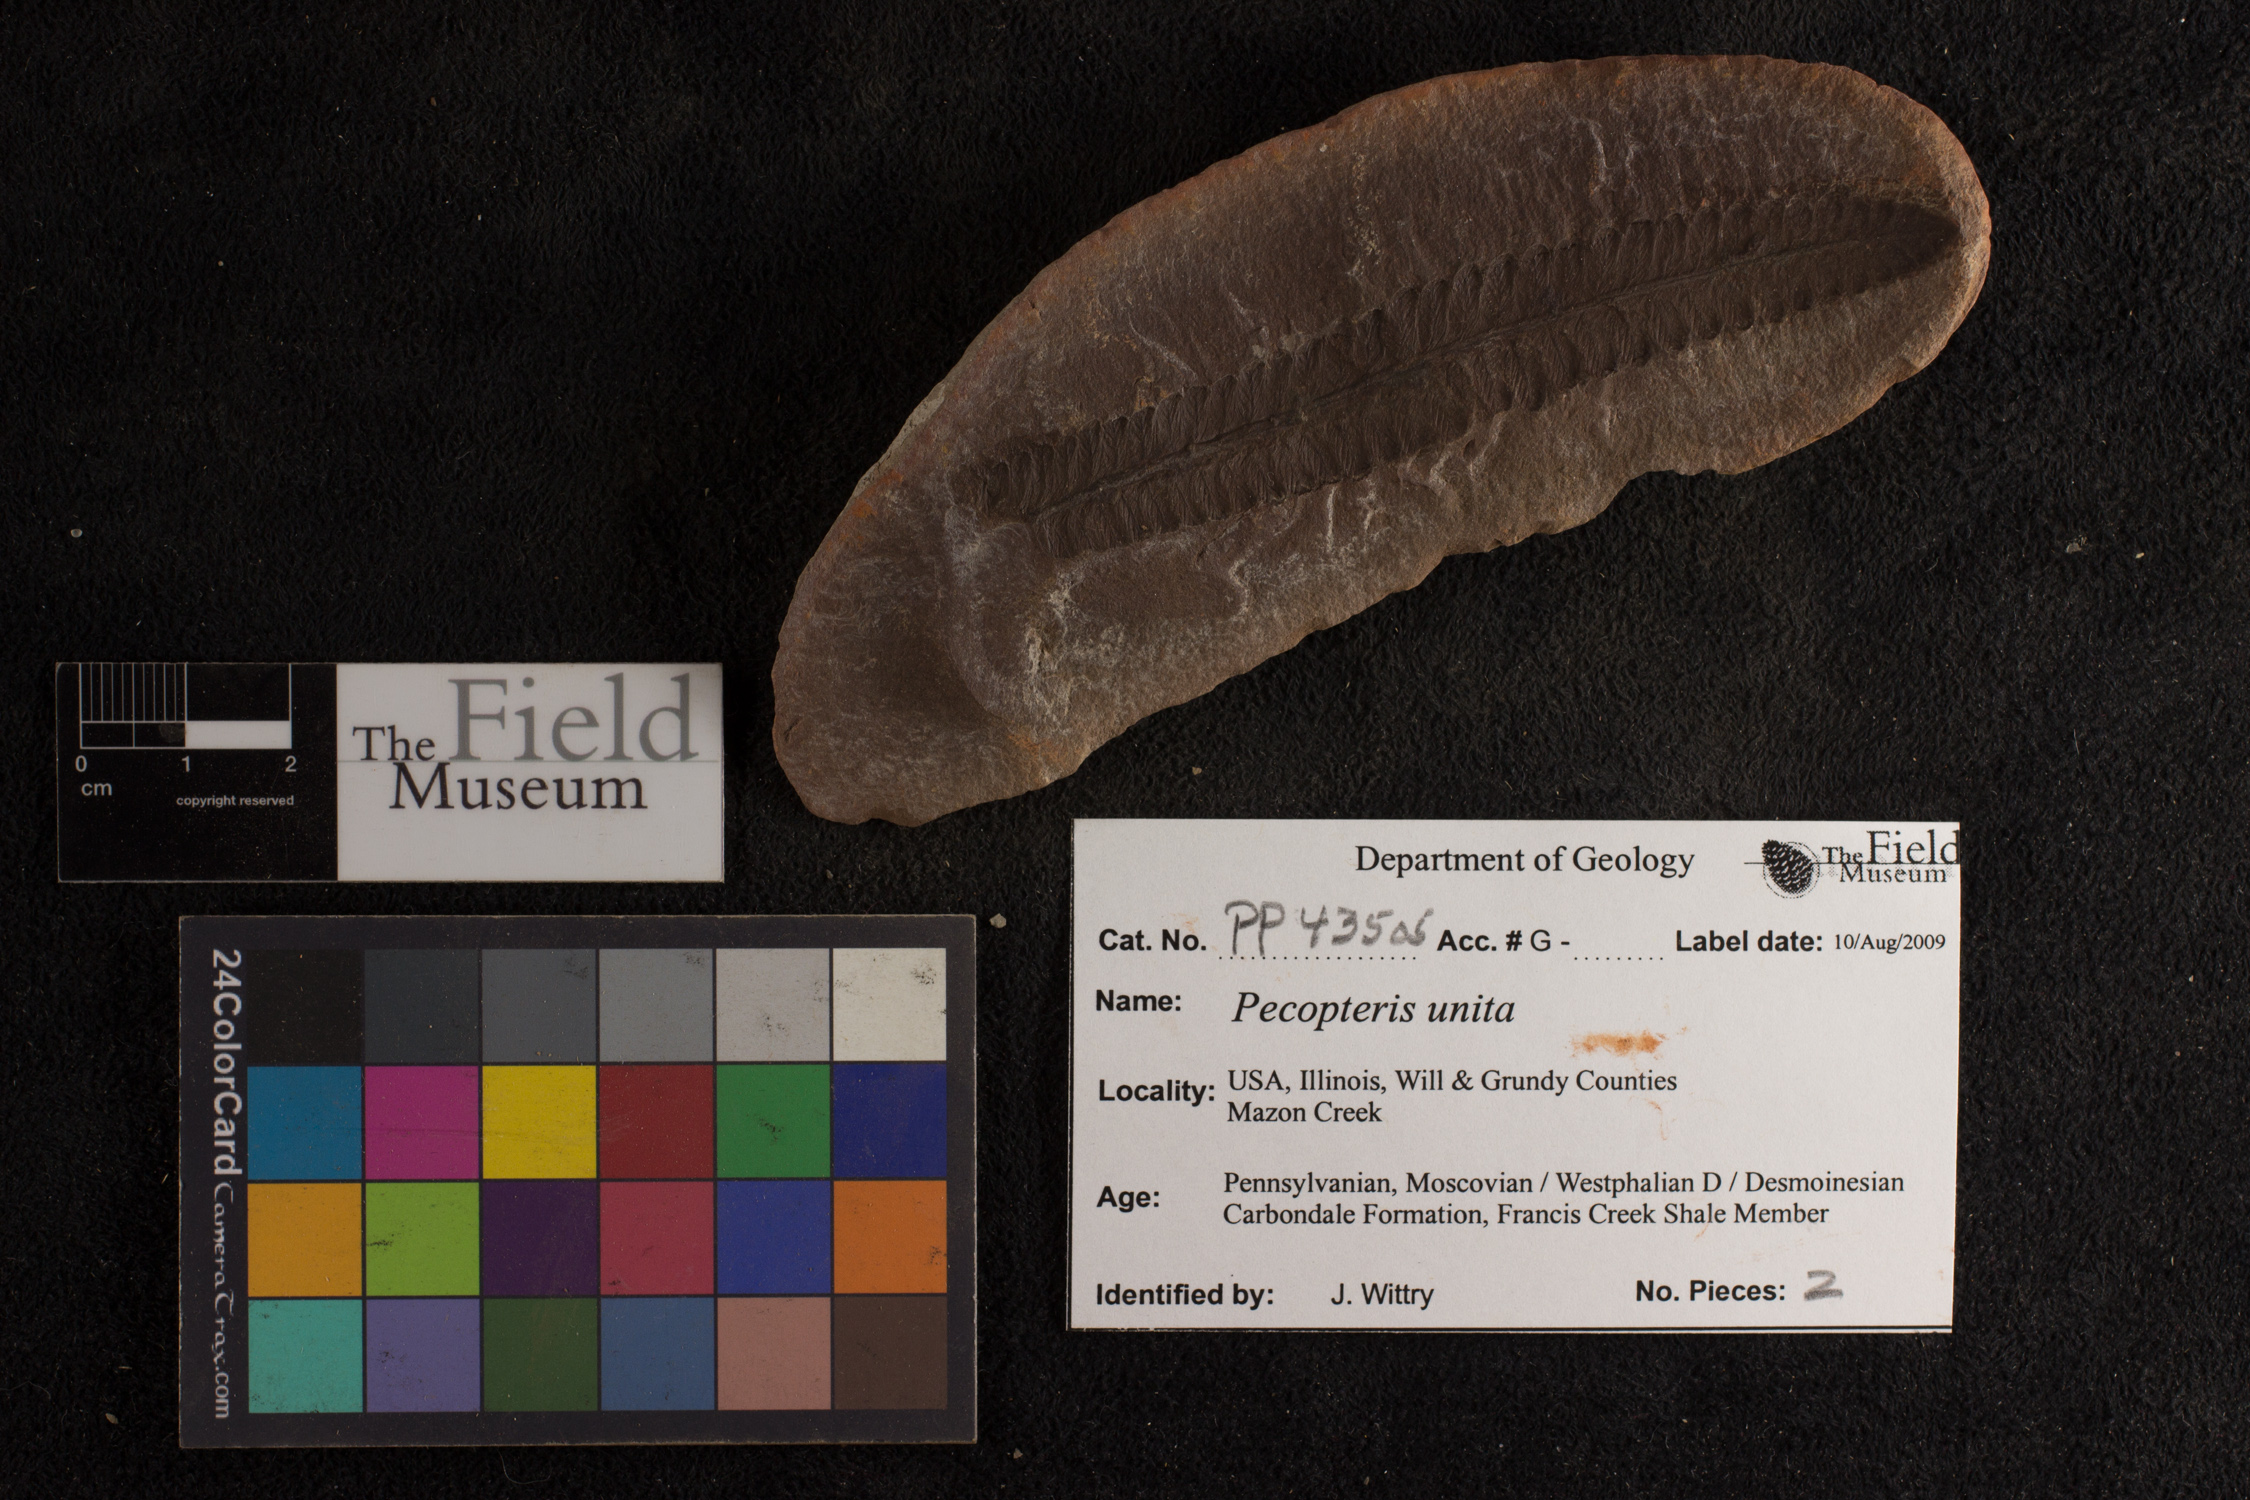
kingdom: Plantae
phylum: Tracheophyta
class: Polypodiopsida
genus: Diplazites
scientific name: Diplazites
